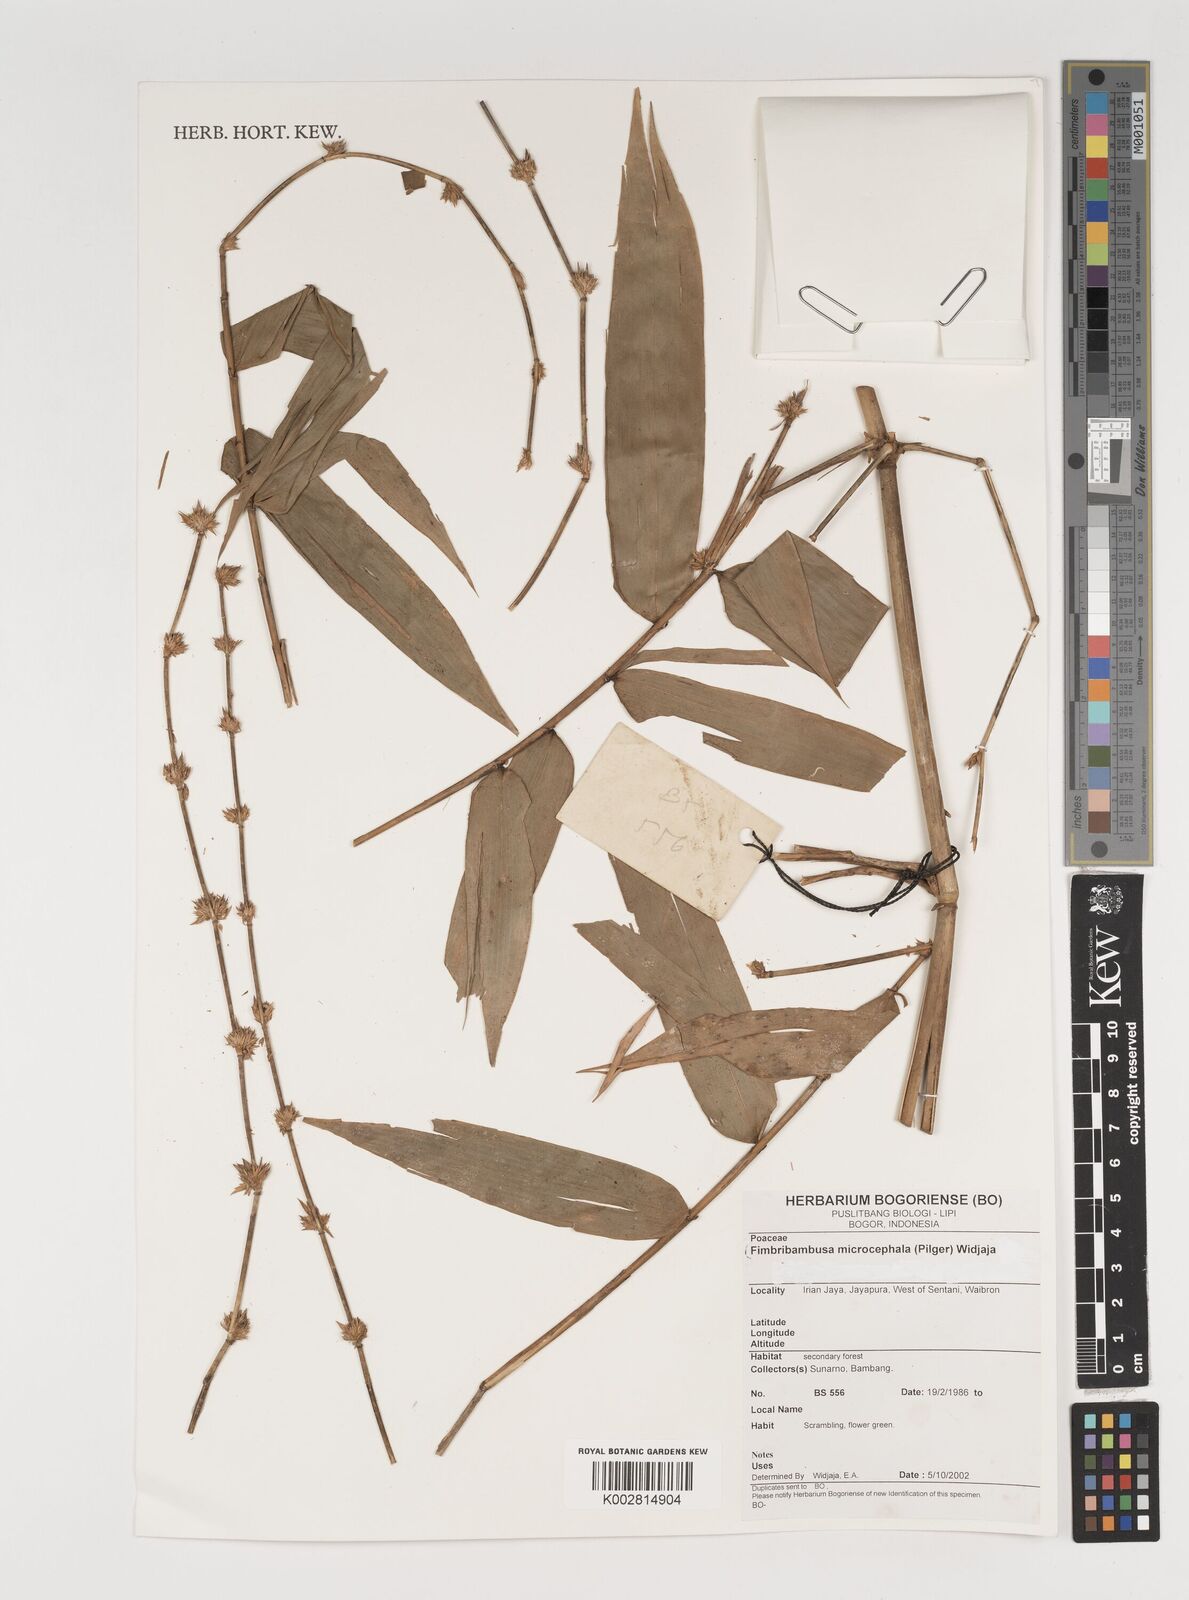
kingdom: Plantae
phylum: Tracheophyta
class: Liliopsida
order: Poales
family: Poaceae
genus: Fimbribambusa
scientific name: Fimbribambusa microcephala
